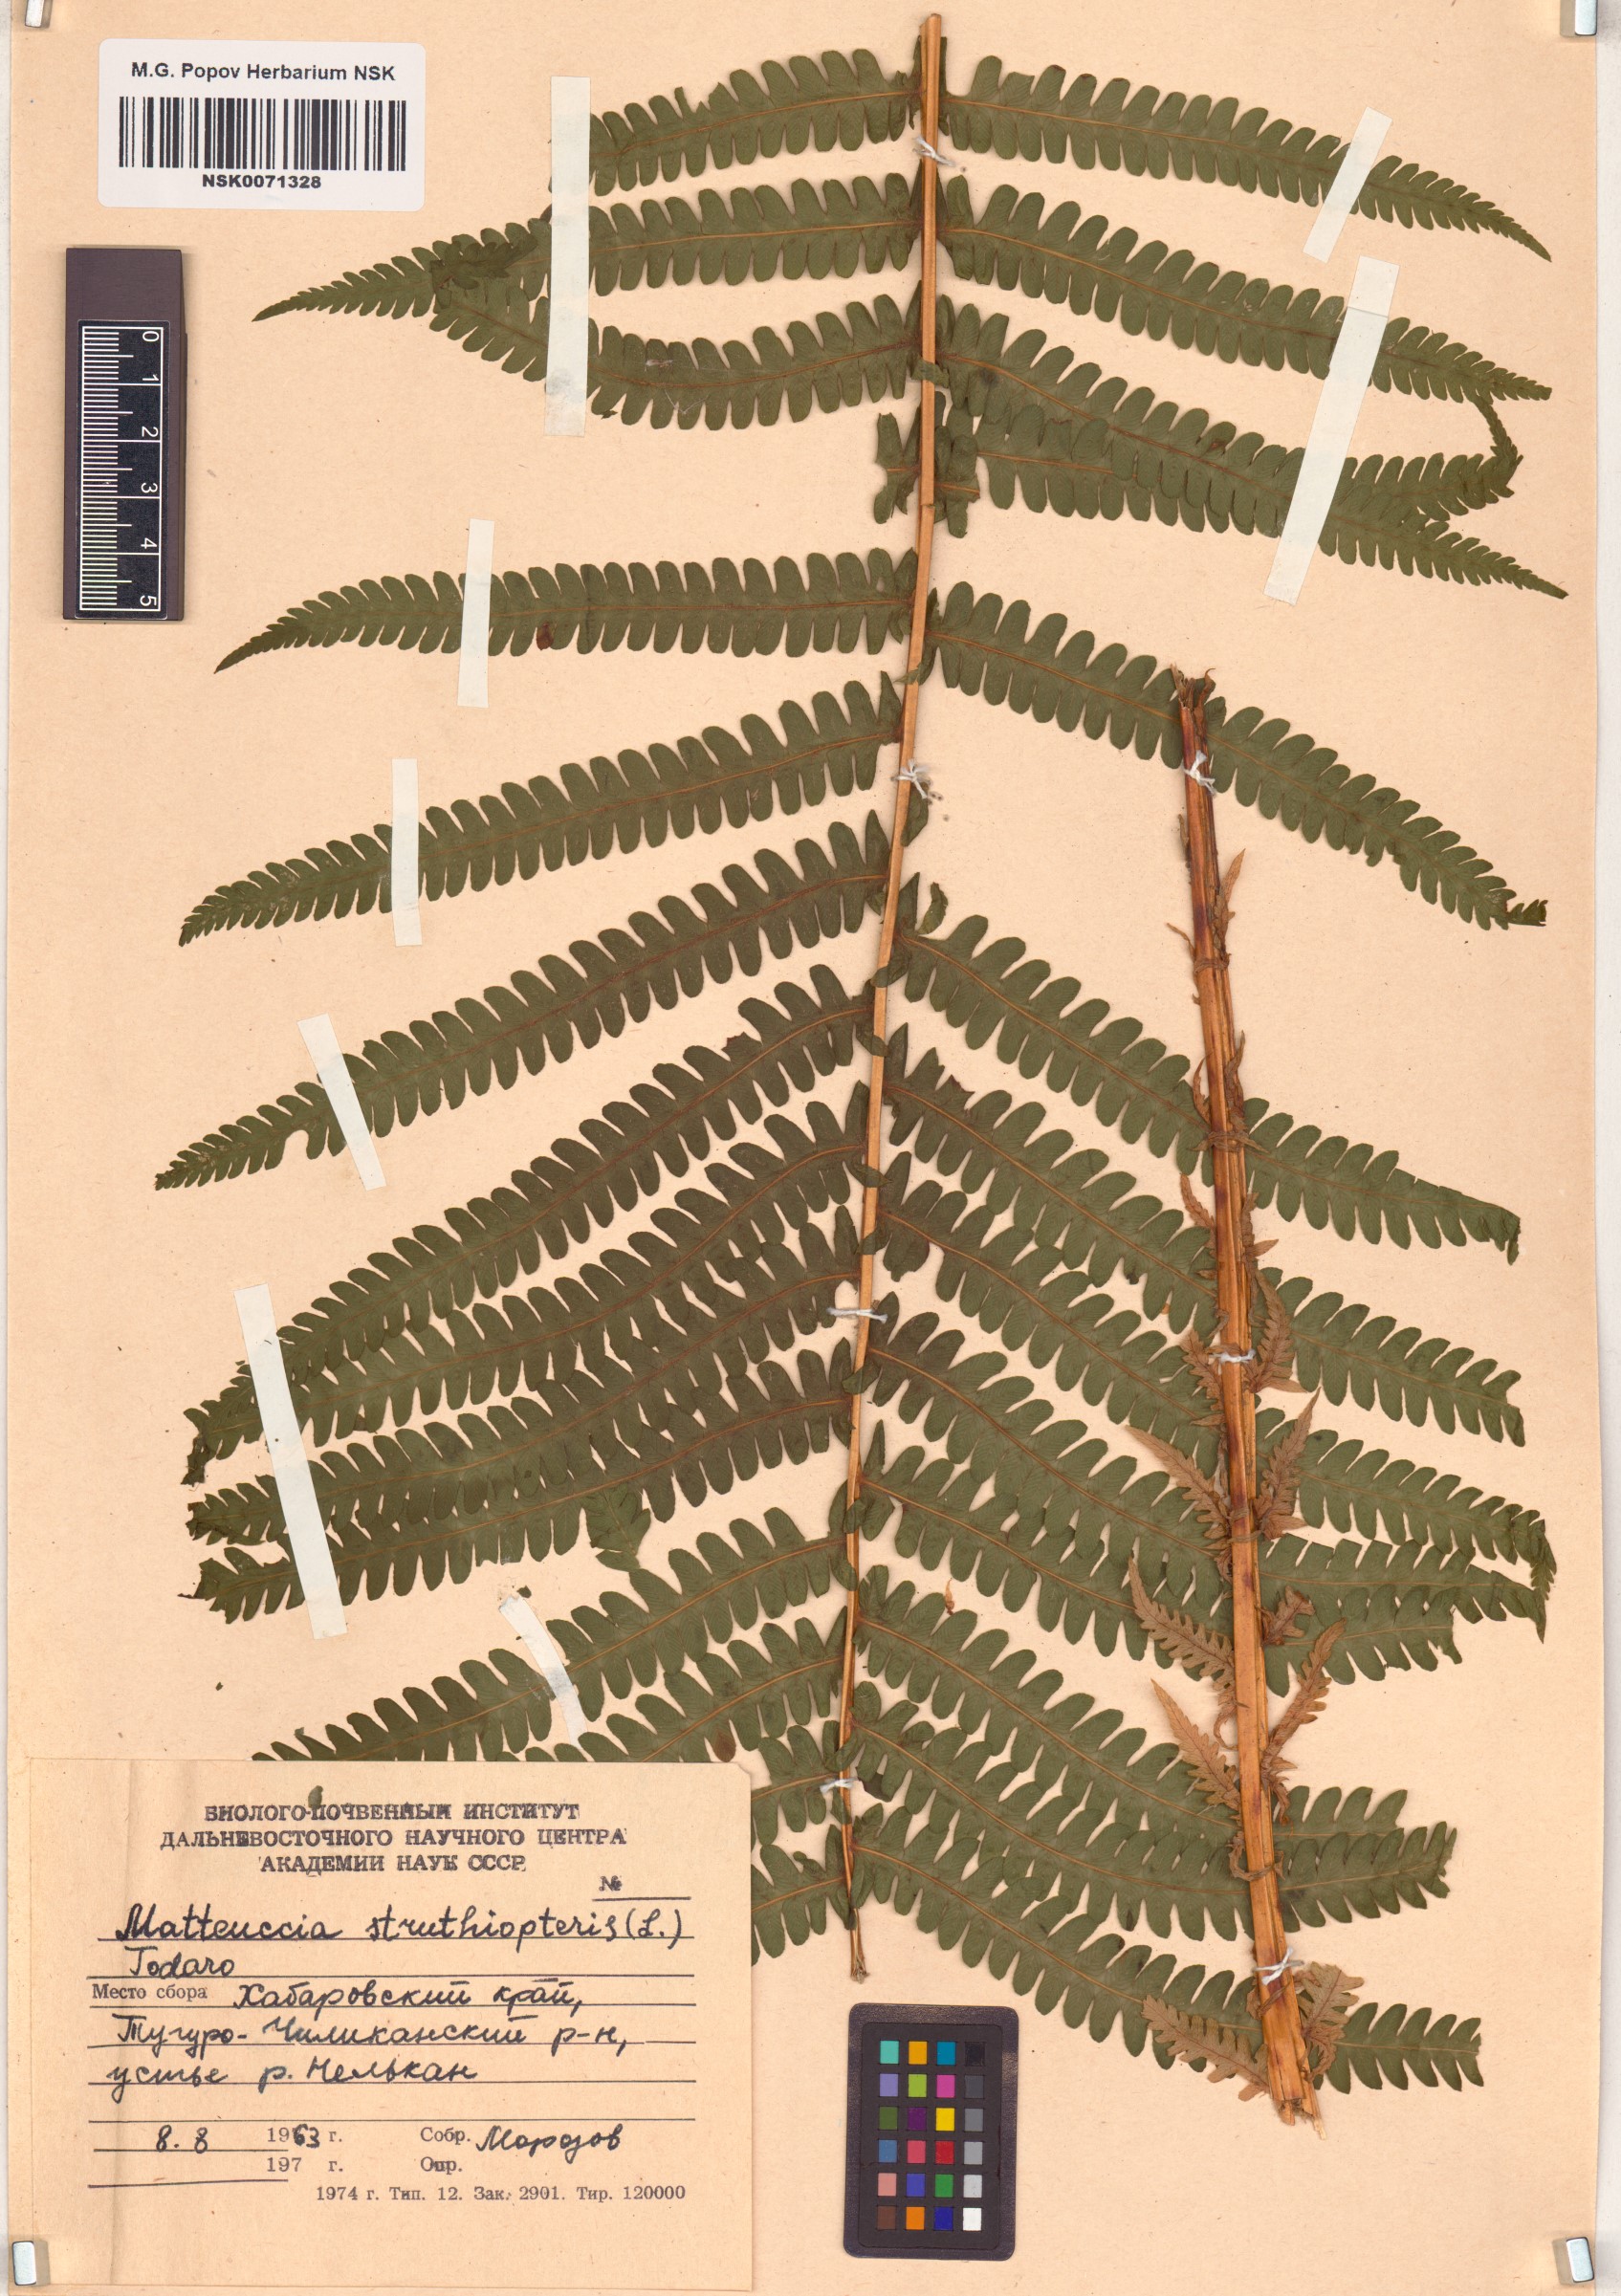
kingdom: Plantae
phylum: Tracheophyta
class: Polypodiopsida
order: Polypodiales
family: Onocleaceae
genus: Matteuccia
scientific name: Matteuccia struthiopteris
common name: Ostrich fern
